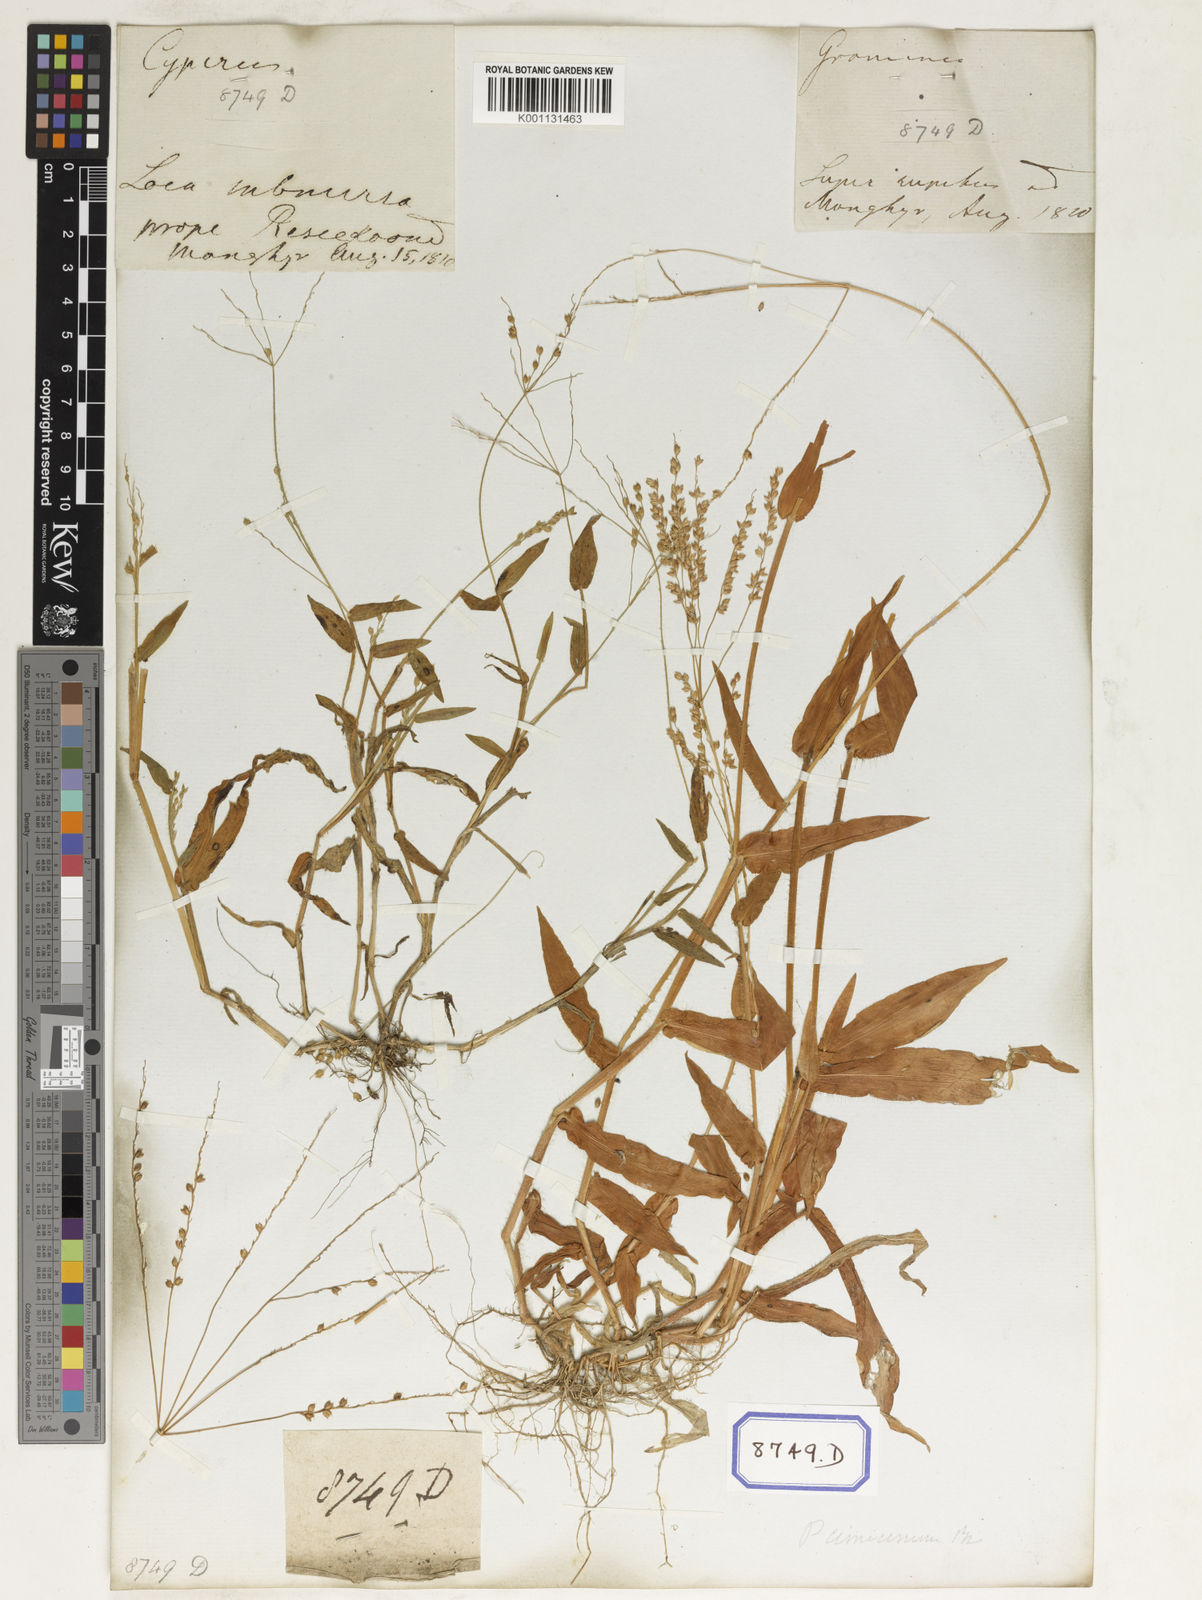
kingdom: Plantae
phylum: Tracheophyta
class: Liliopsida
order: Poales
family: Poaceae
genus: Alloteropsis
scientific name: Alloteropsis
